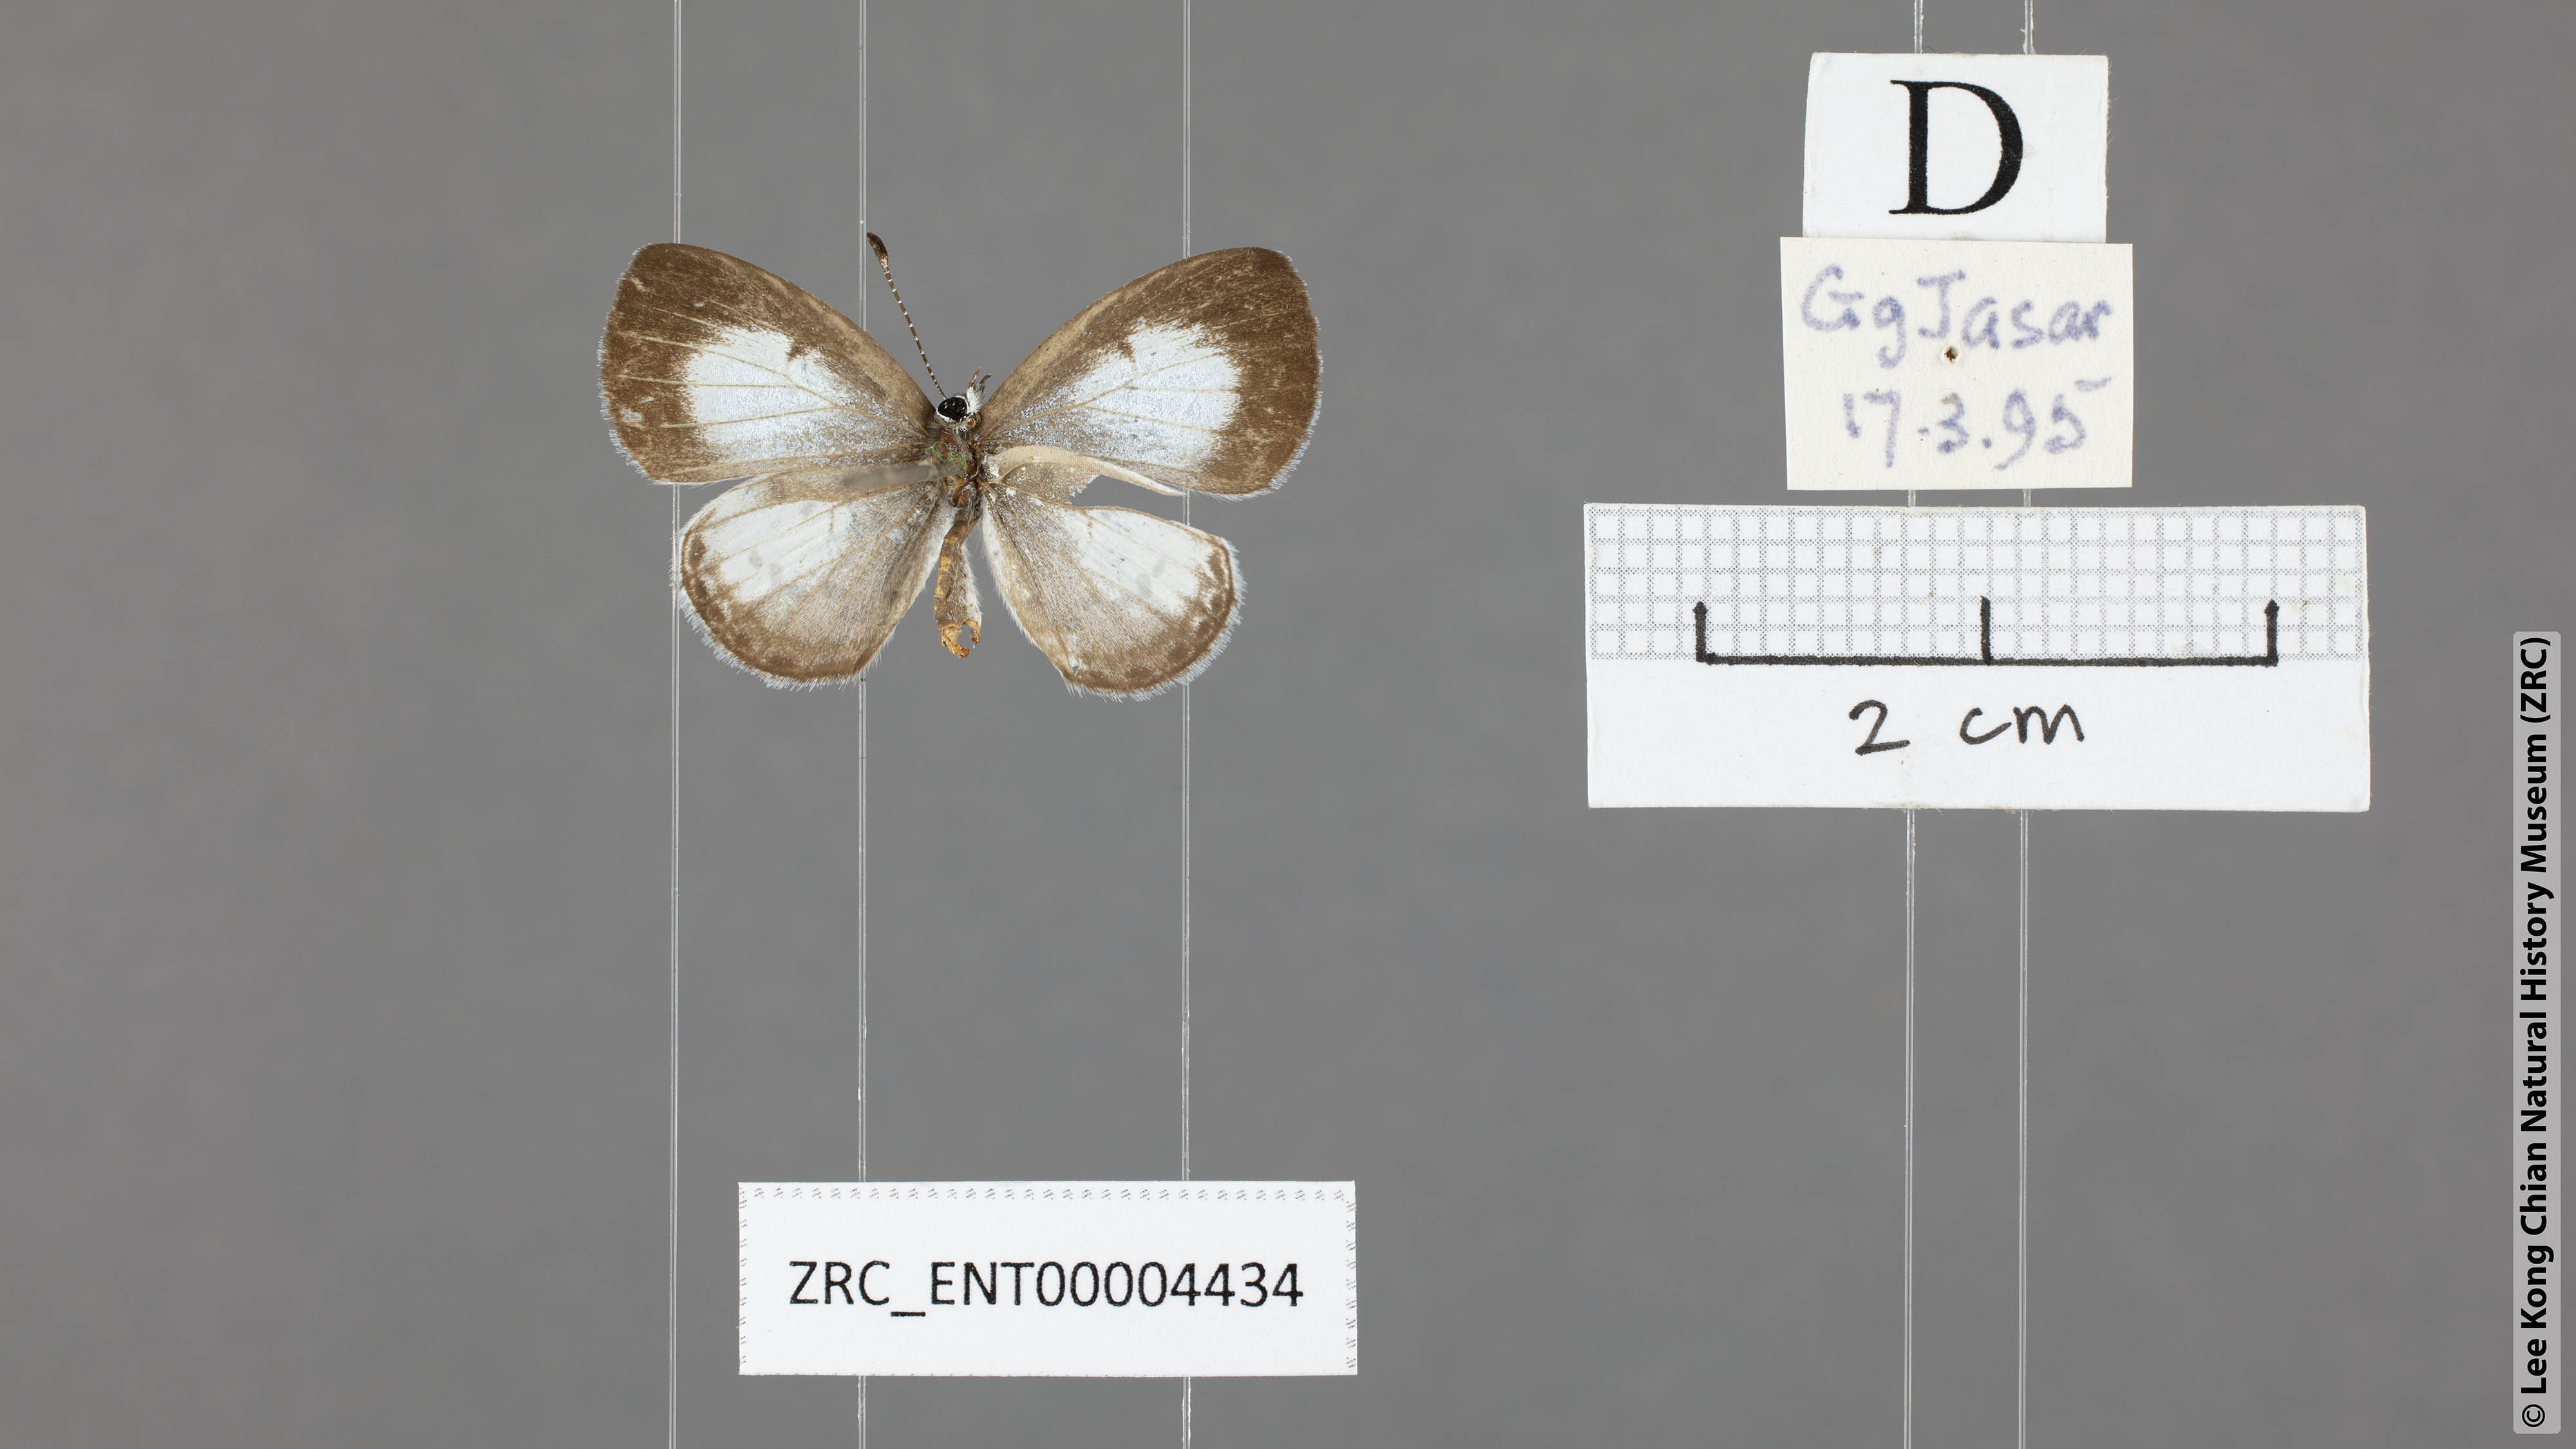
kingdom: Animalia
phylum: Arthropoda
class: Insecta
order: Lepidoptera
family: Lycaenidae
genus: Oreolyce
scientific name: Oreolyce
